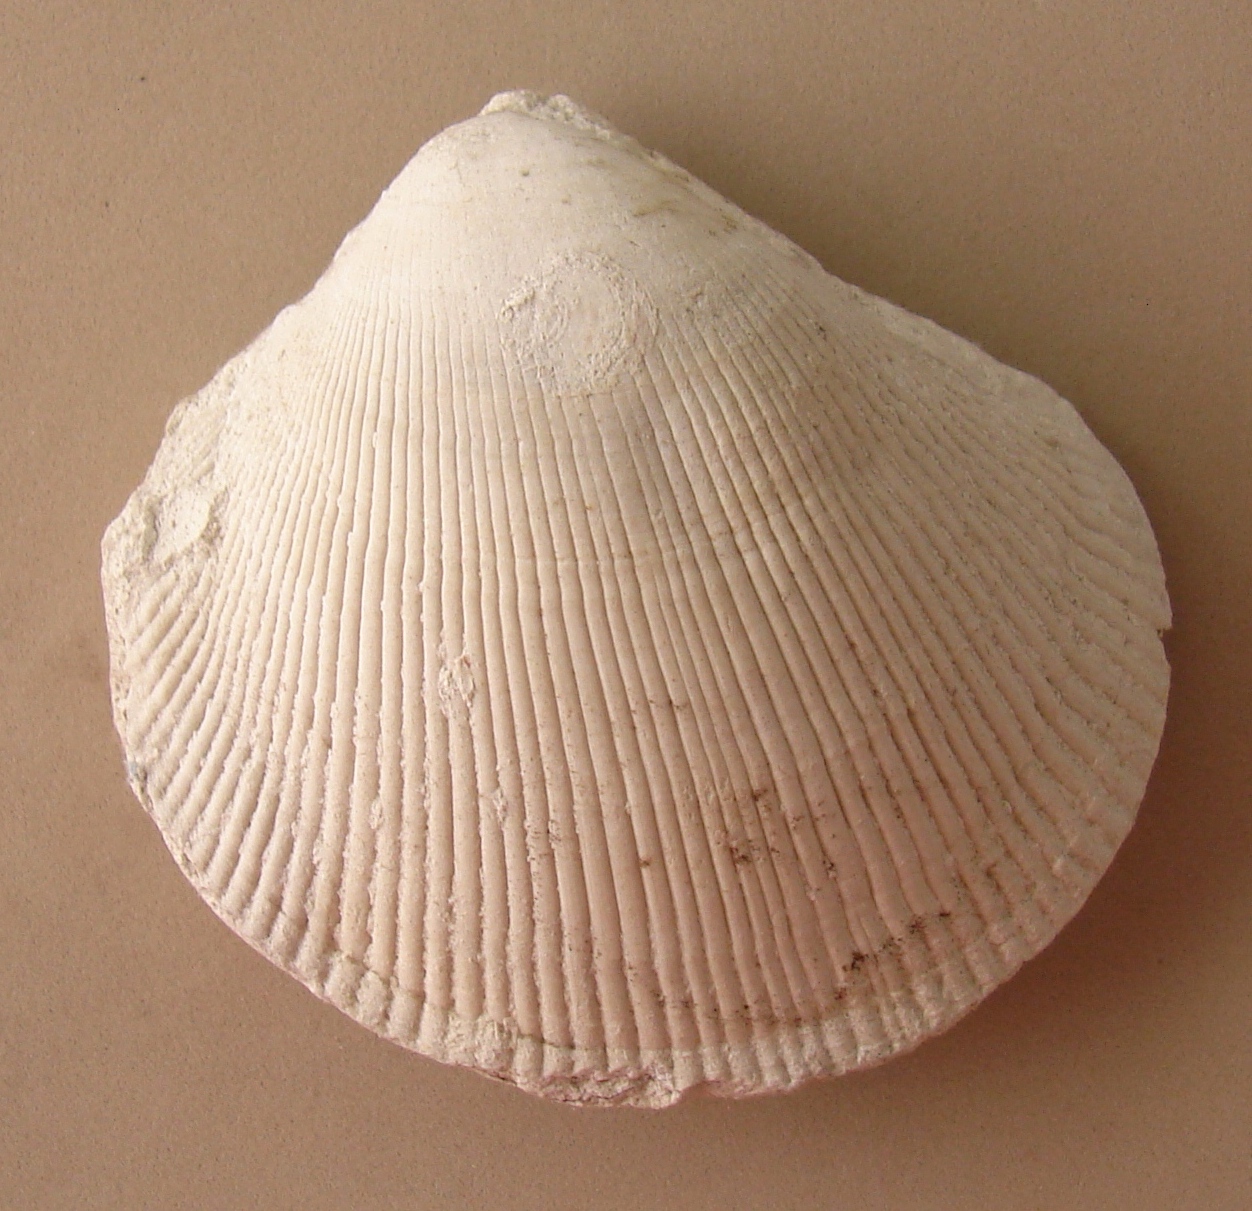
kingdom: Animalia
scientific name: Animalia
